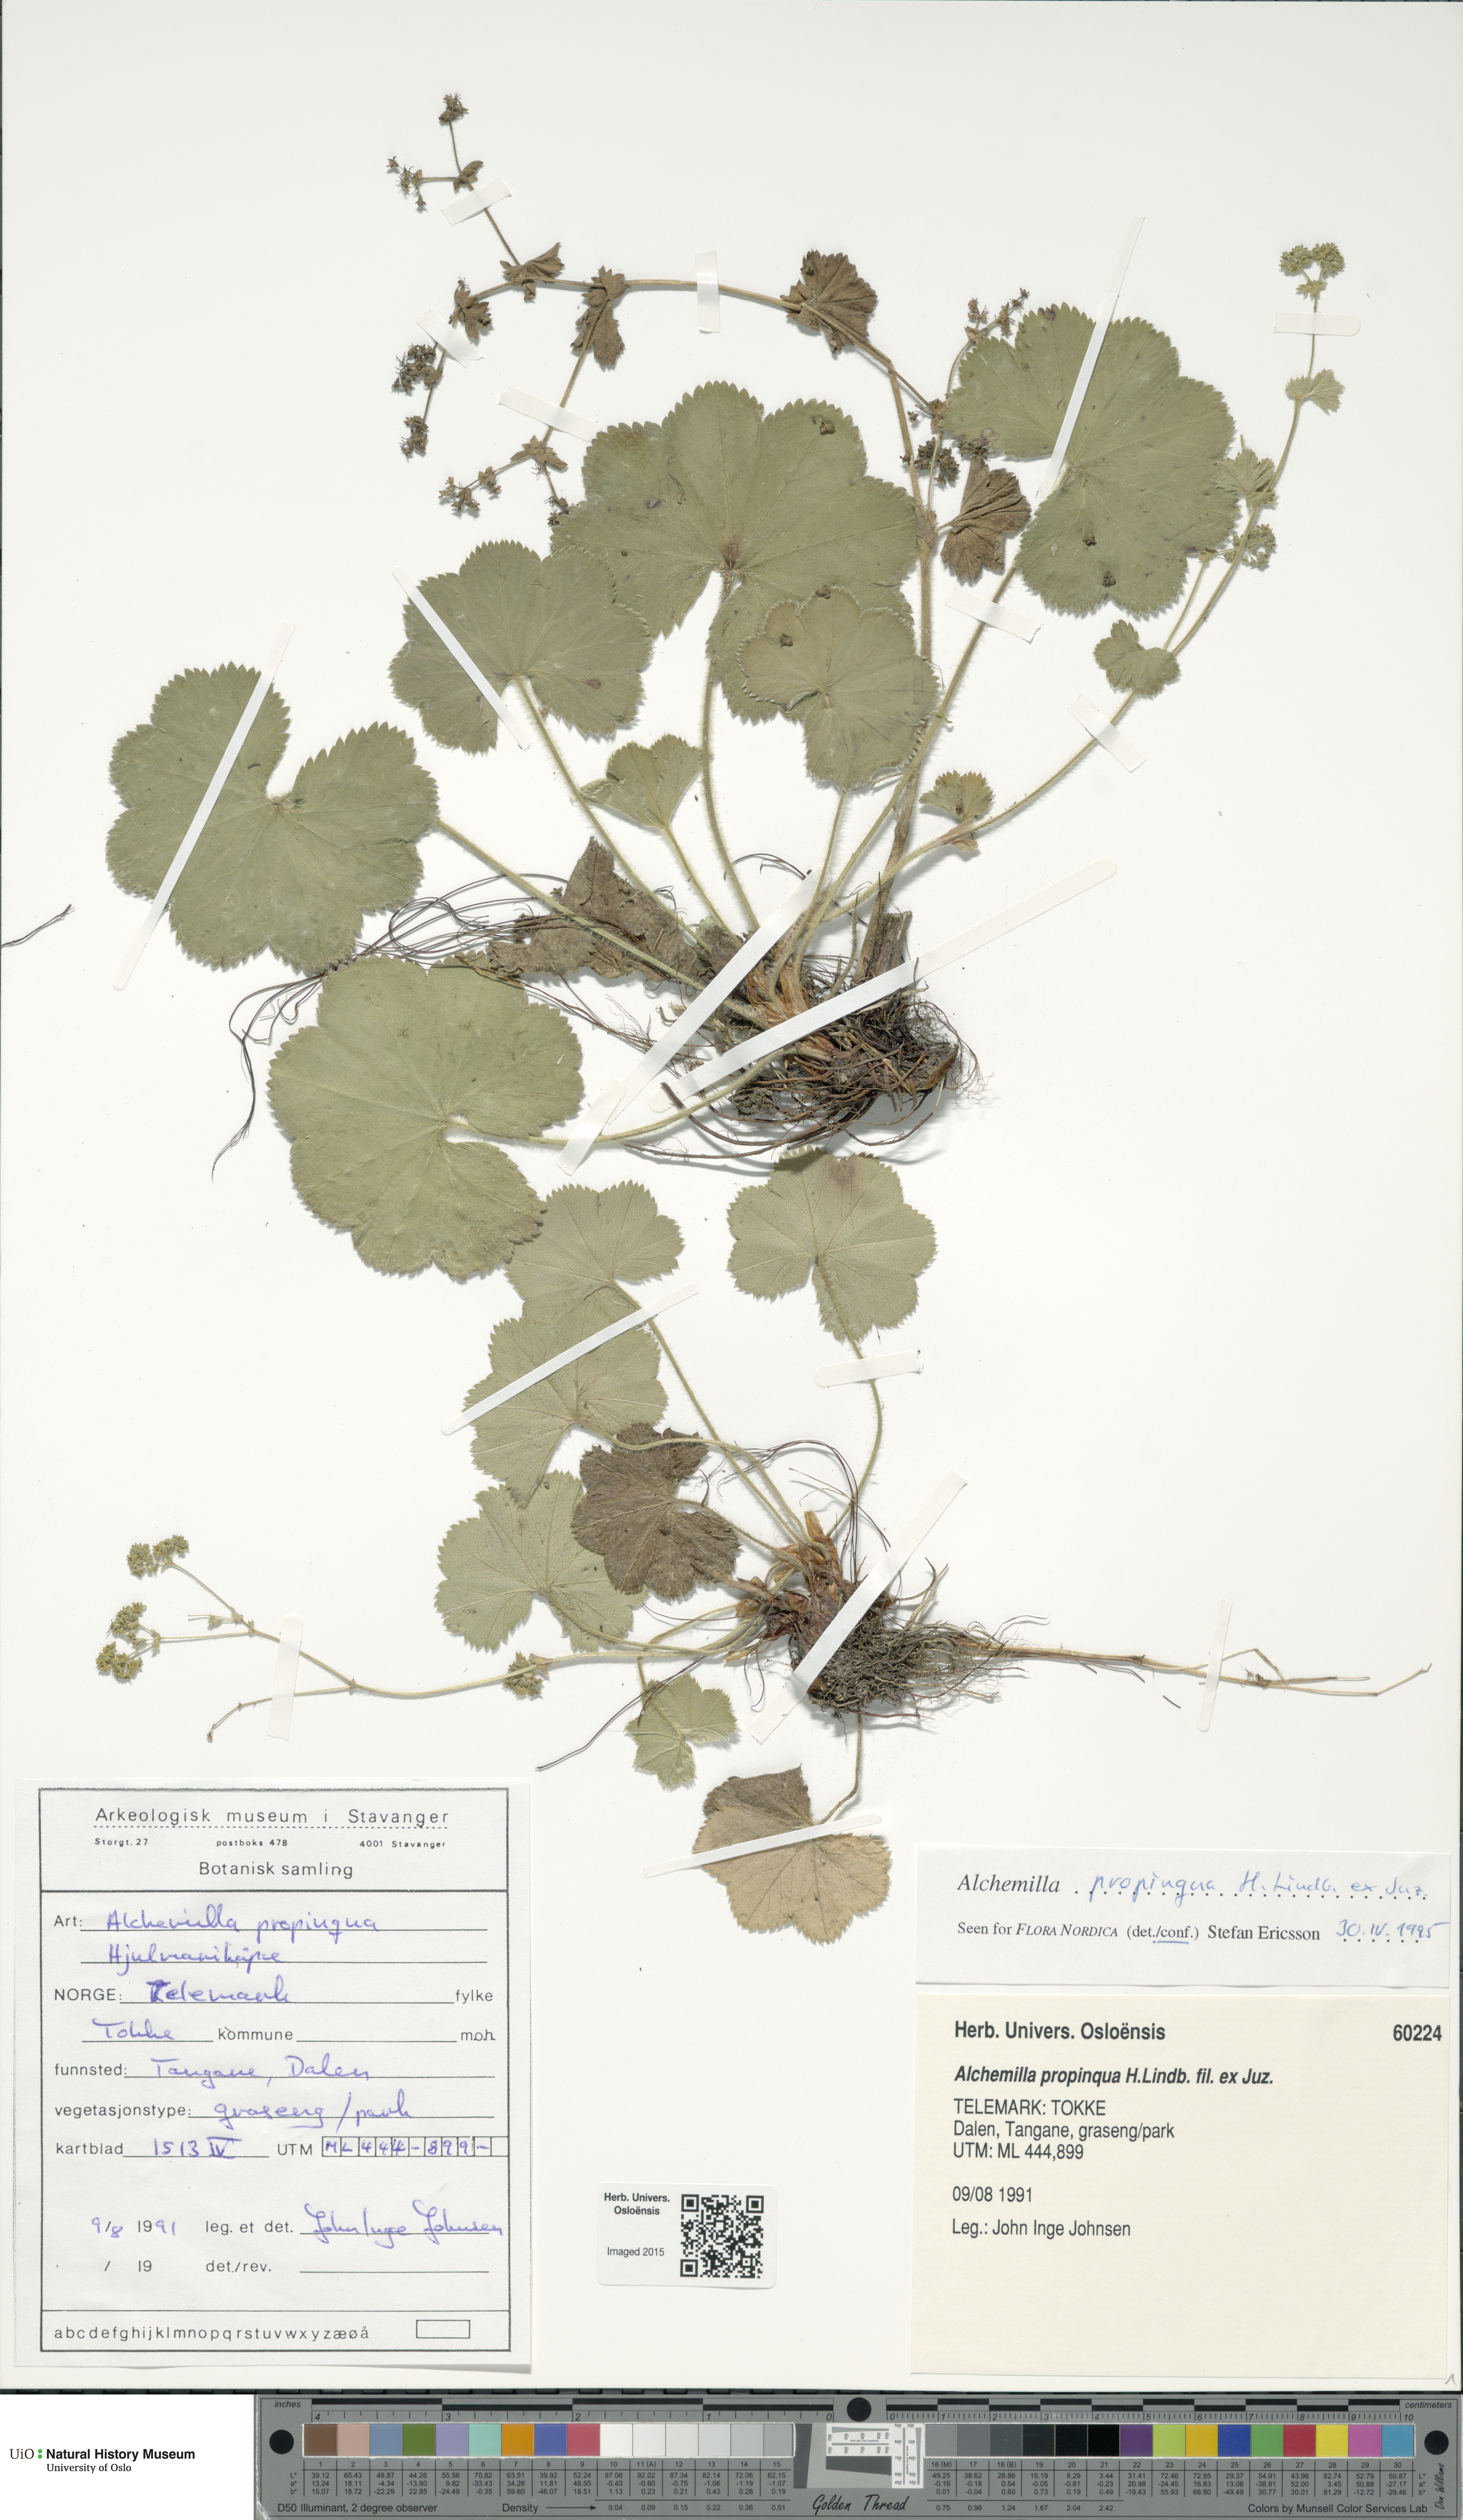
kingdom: Plantae
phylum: Tracheophyta
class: Magnoliopsida
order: Rosales
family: Rosaceae
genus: Alchemilla
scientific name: Alchemilla propinqua
